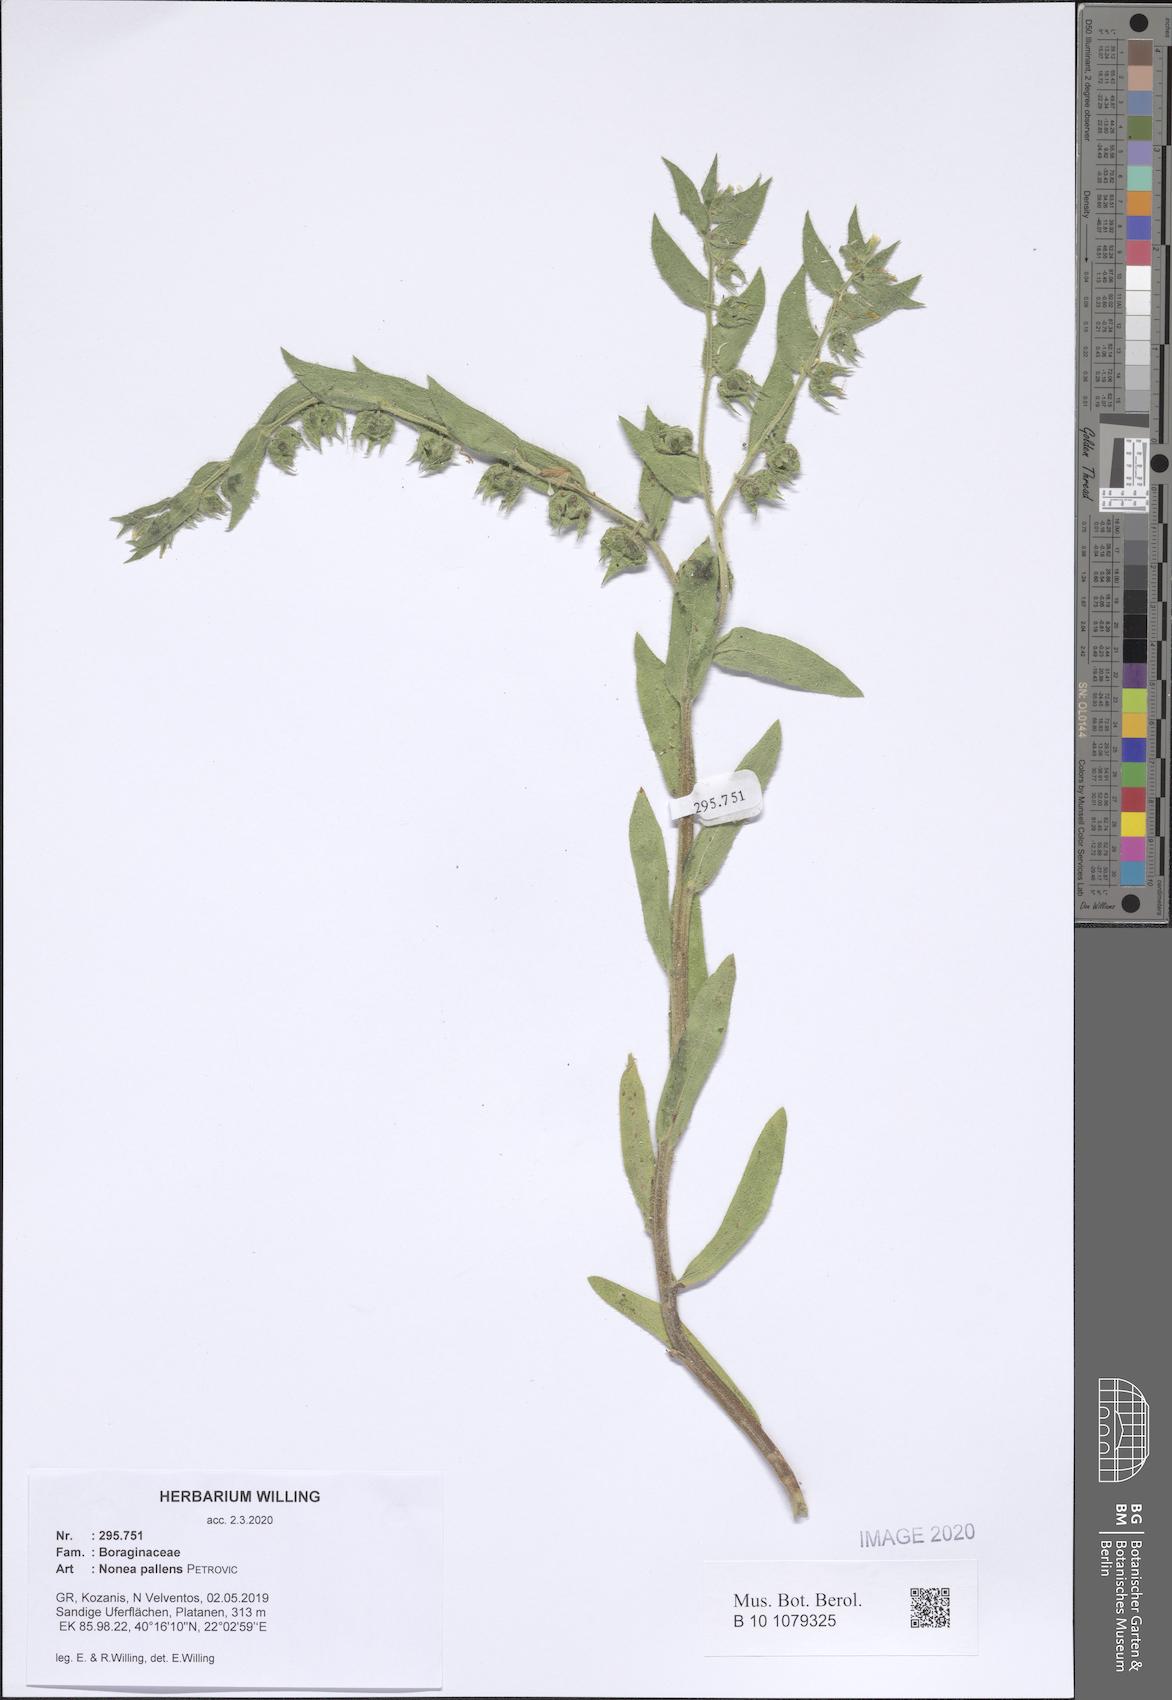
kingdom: Plantae
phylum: Tracheophyta
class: Magnoliopsida
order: Boraginales
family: Boraginaceae
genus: Nonea
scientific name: Nonea pallens
